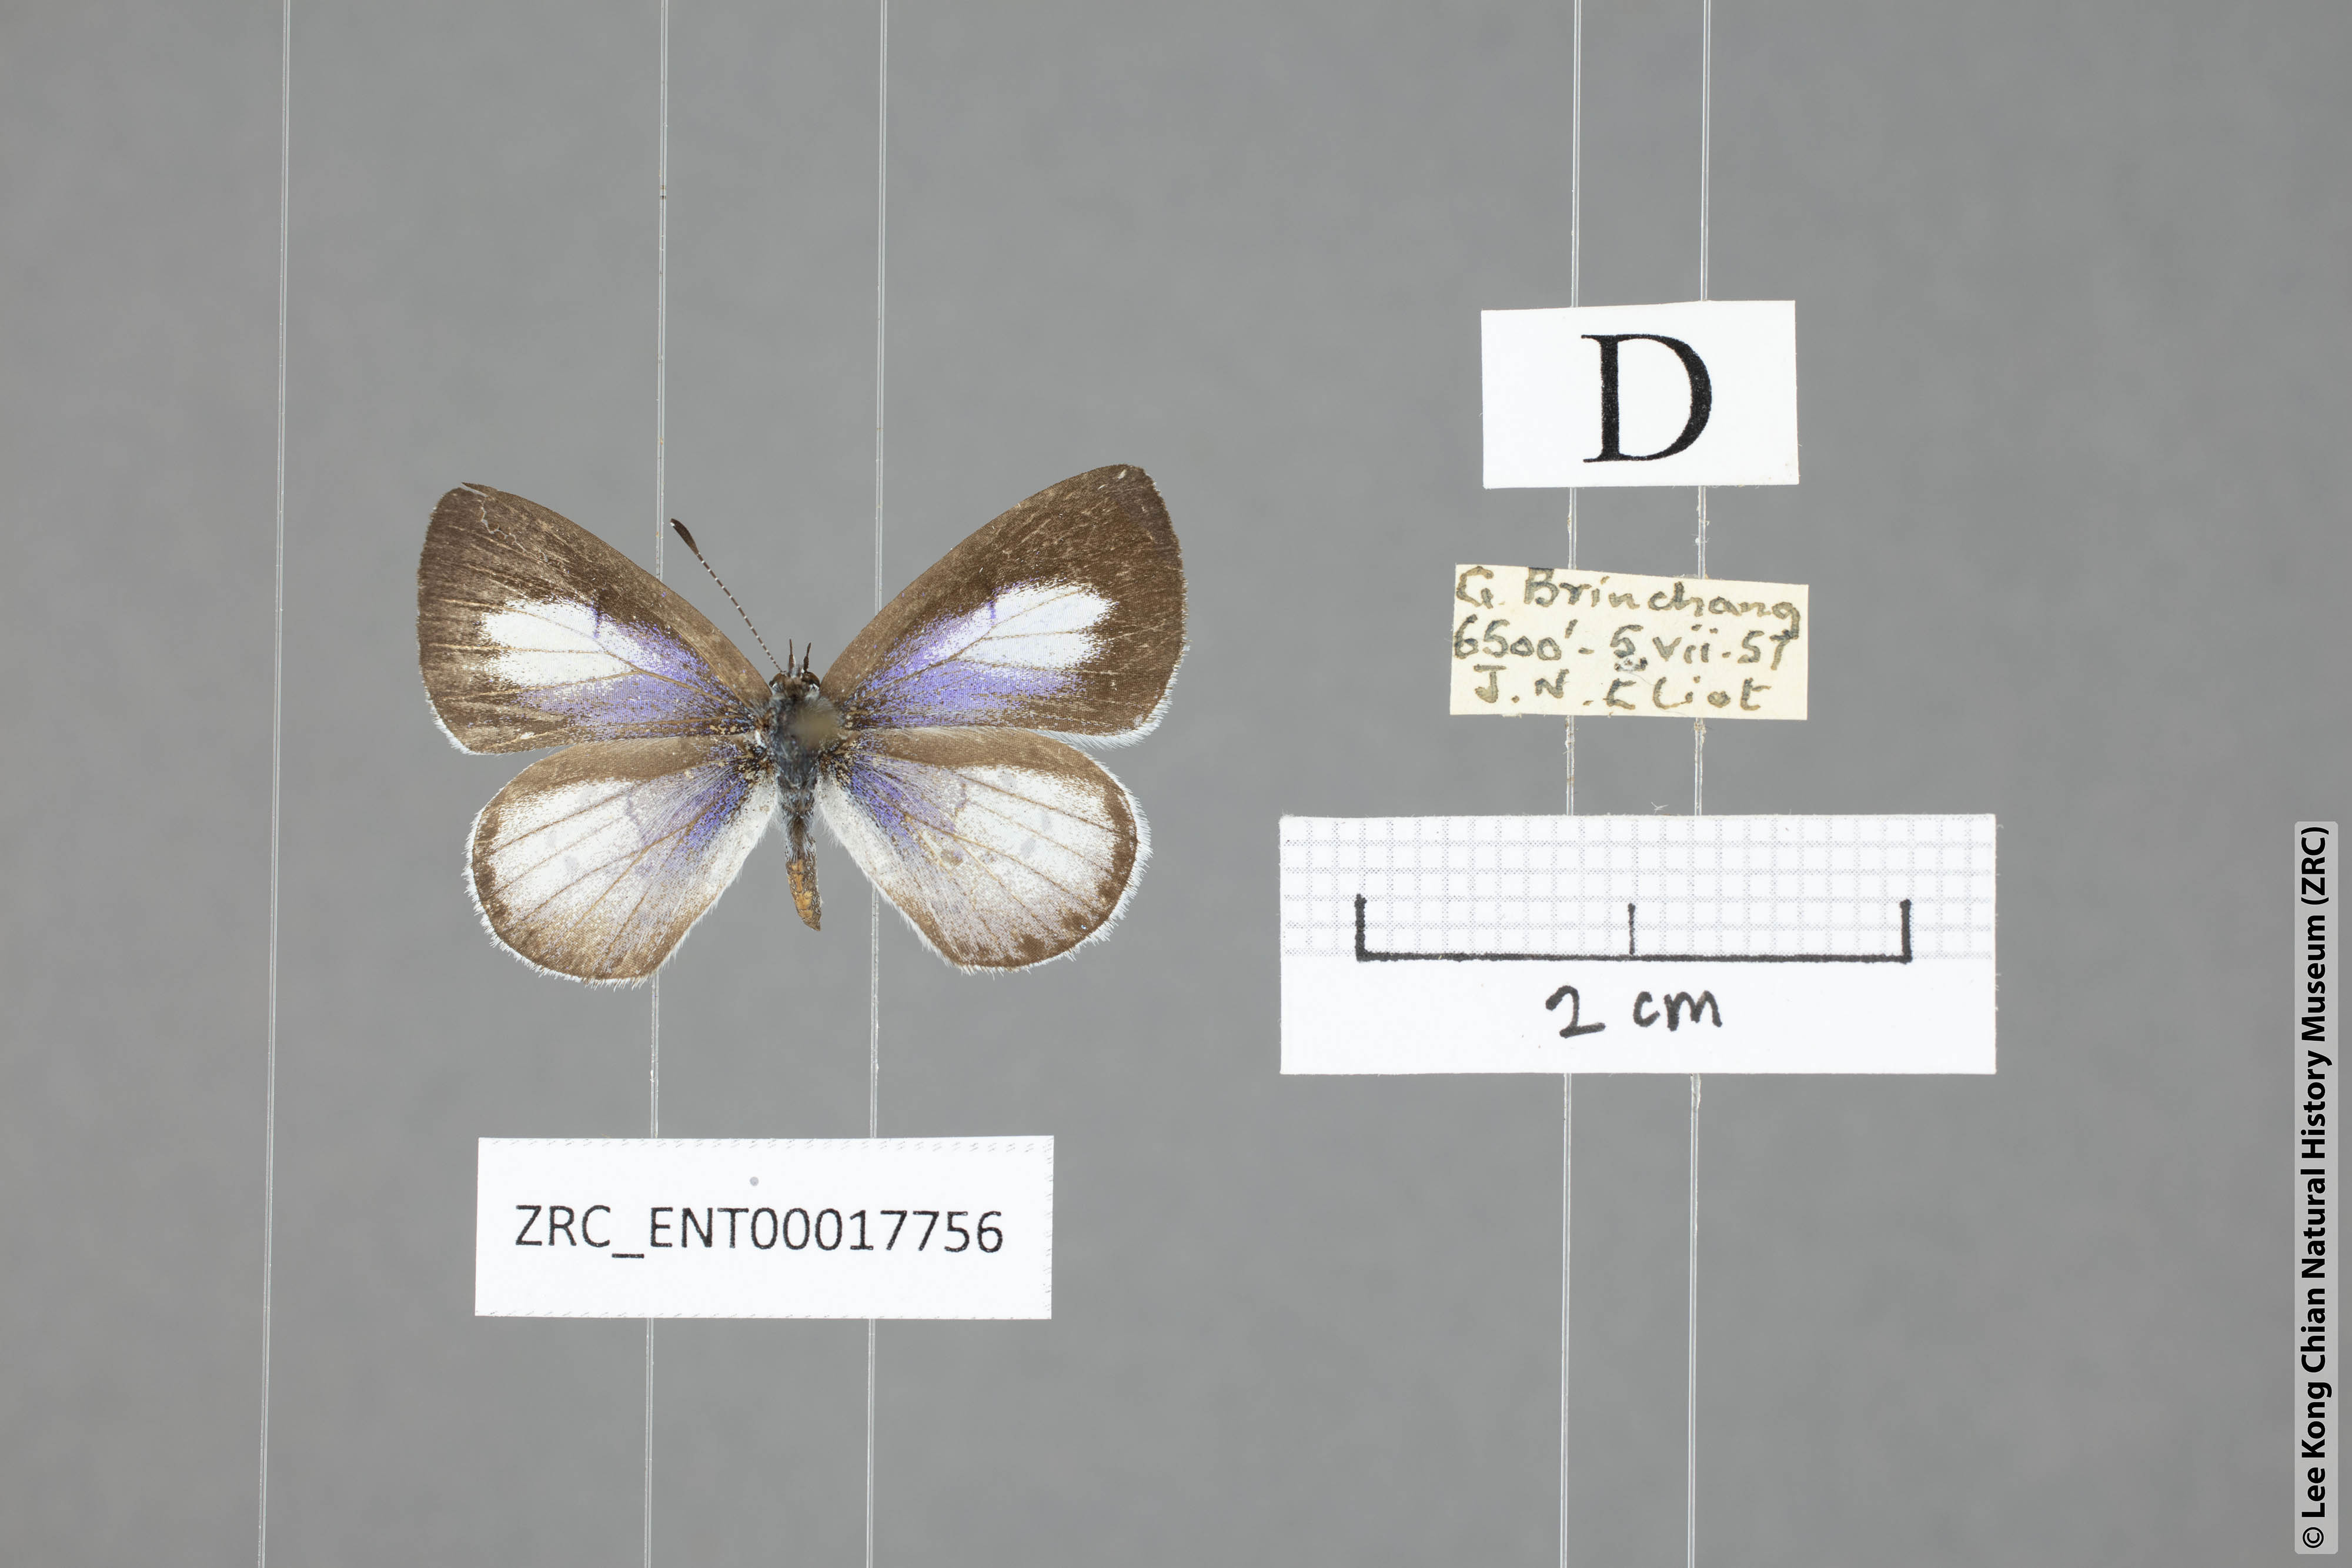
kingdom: Animalia
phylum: Arthropoda
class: Insecta
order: Lepidoptera
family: Lycaenidae
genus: Udara
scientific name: Udara toxopeusi
